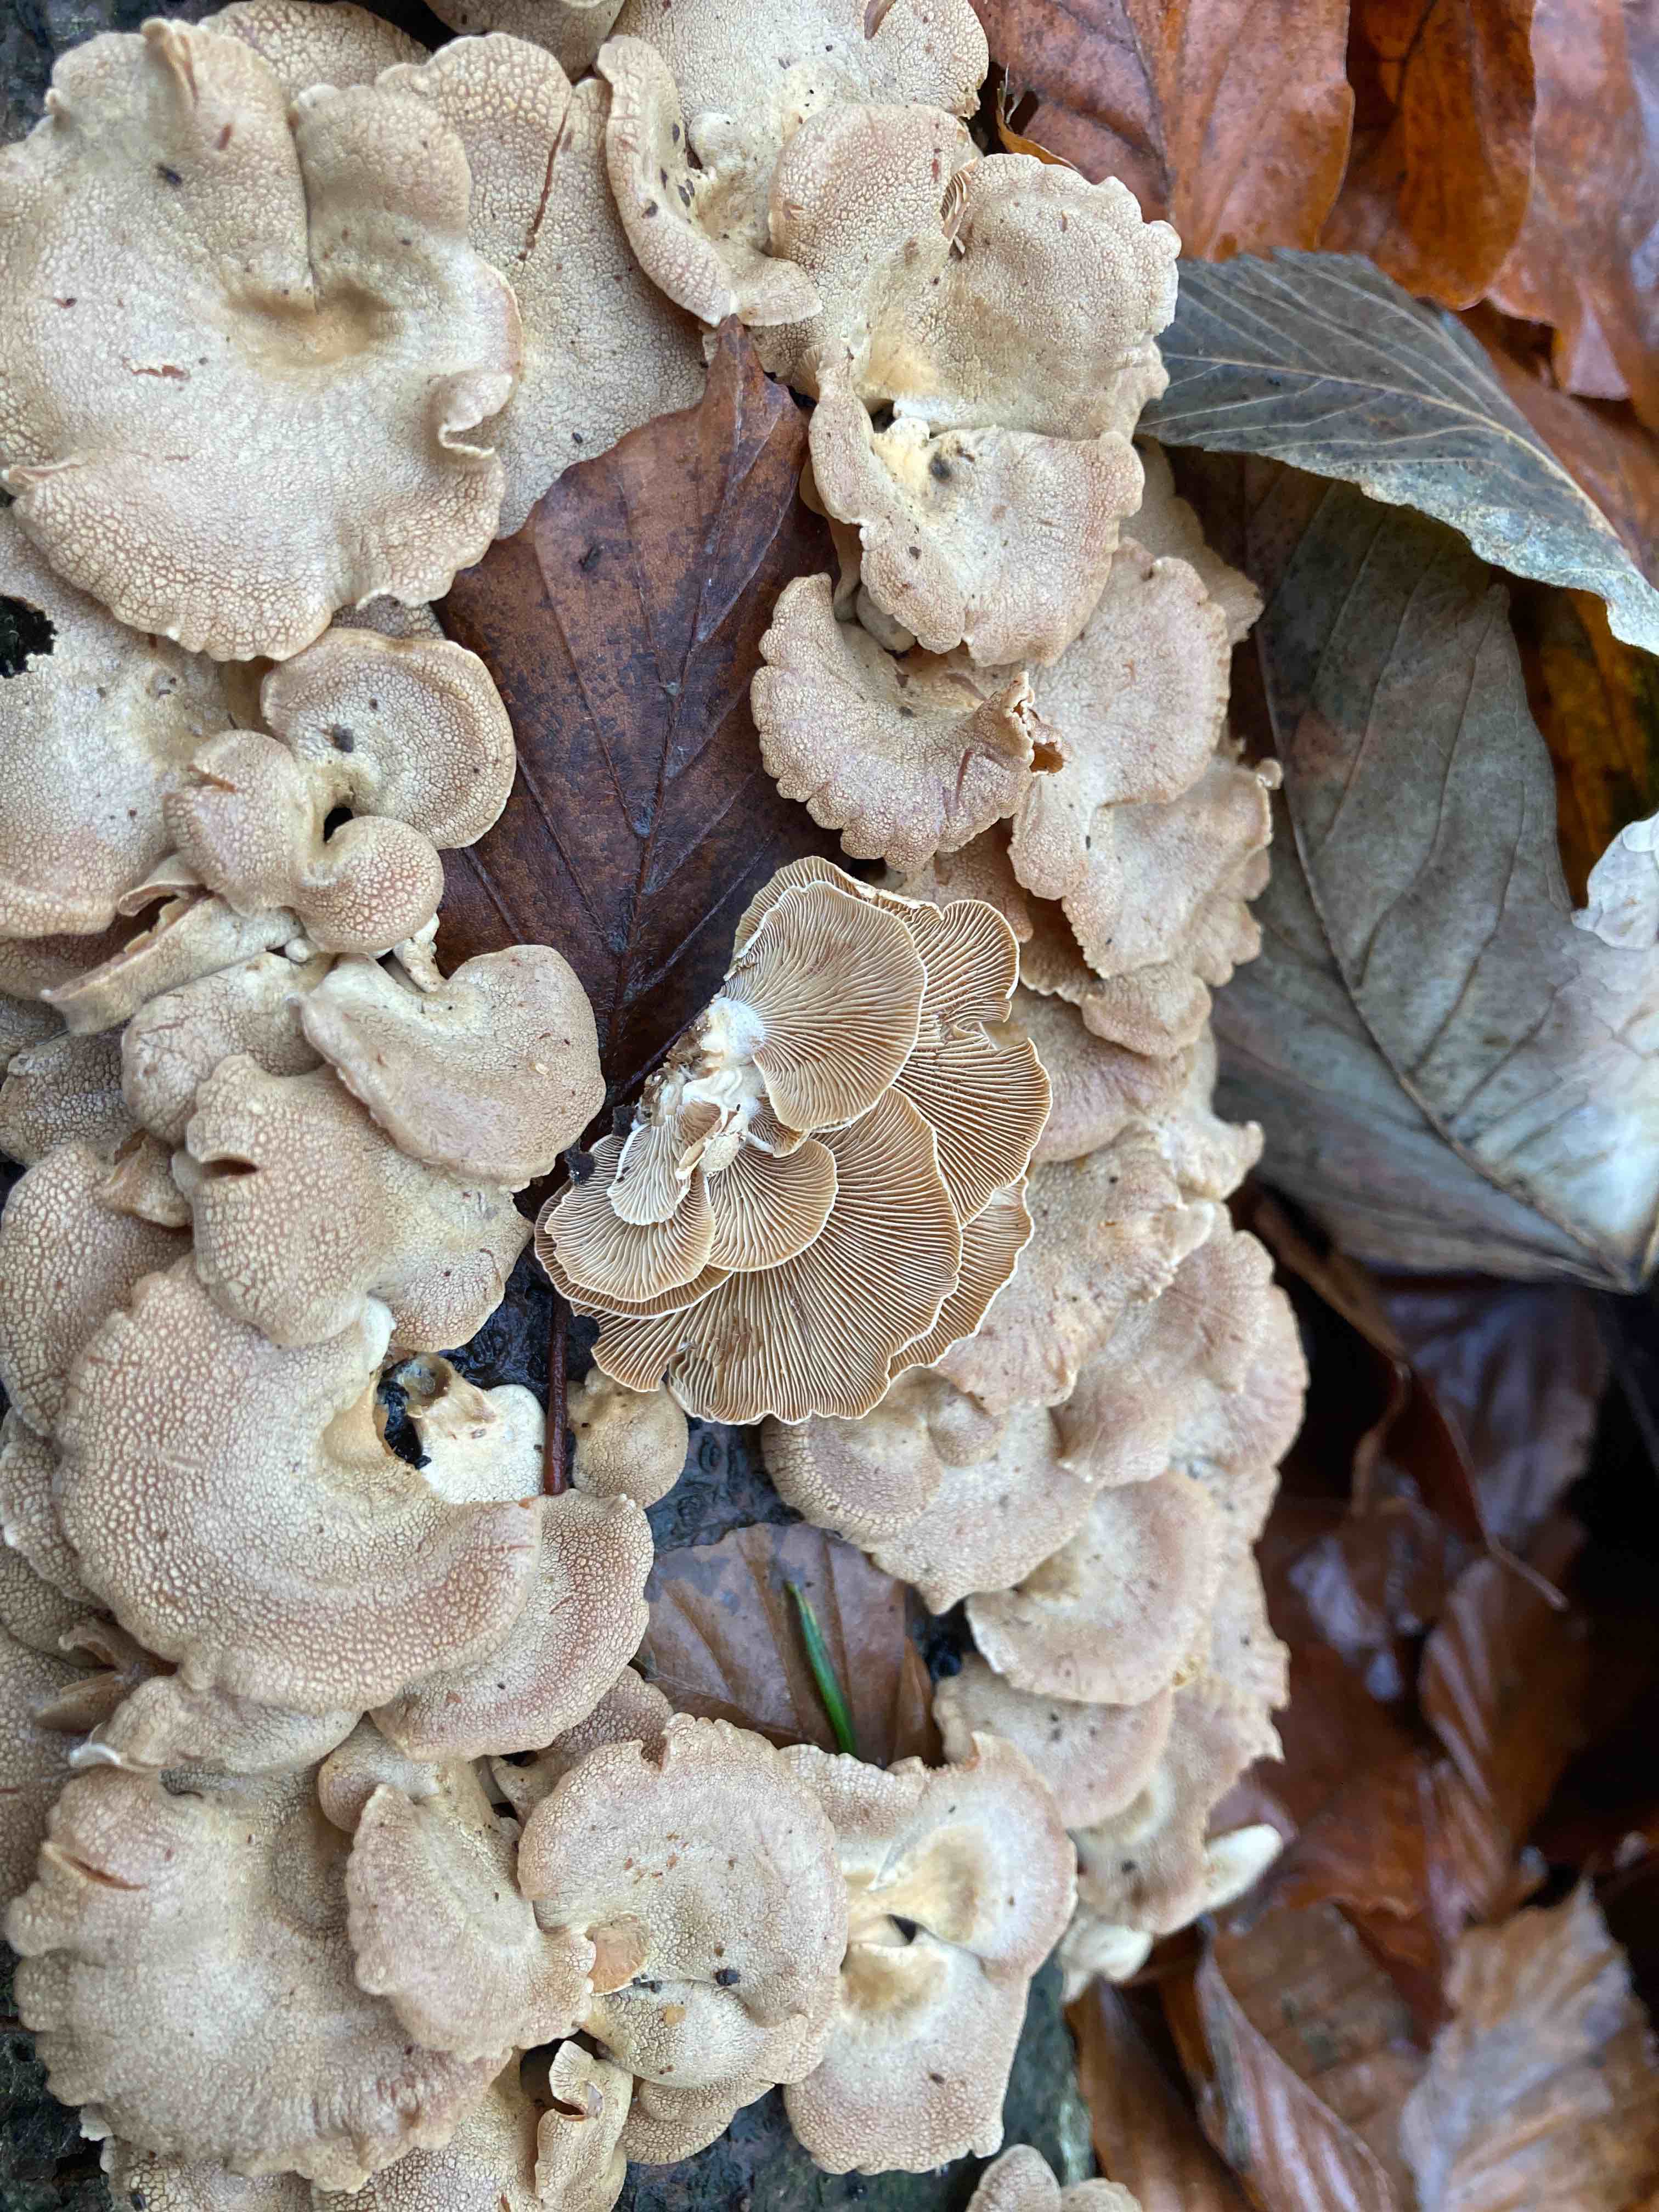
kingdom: Fungi
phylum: Basidiomycota
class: Agaricomycetes
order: Agaricales
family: Mycenaceae
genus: Panellus
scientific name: Panellus stipticus
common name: kliddet epaulethat
